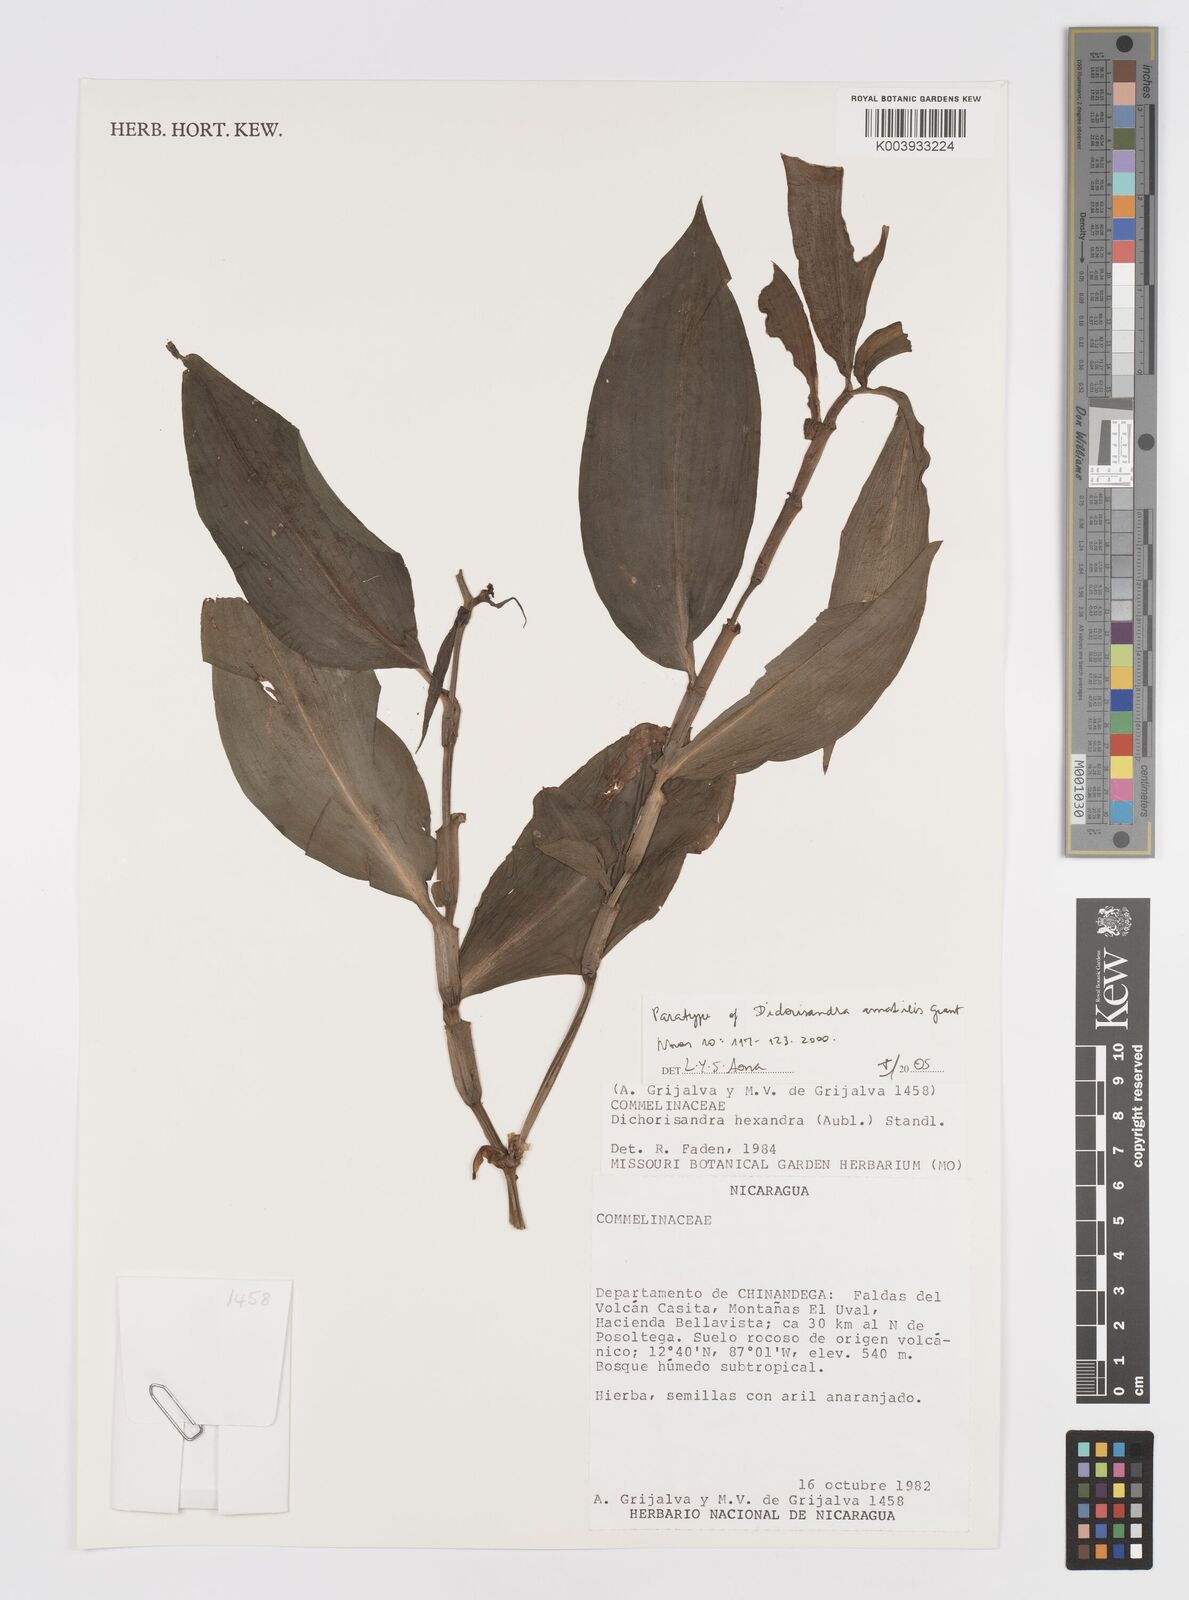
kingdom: Plantae
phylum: Tracheophyta
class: Liliopsida
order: Commelinales
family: Commelinaceae
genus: Dichorisandra
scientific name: Dichorisandra amabilis
